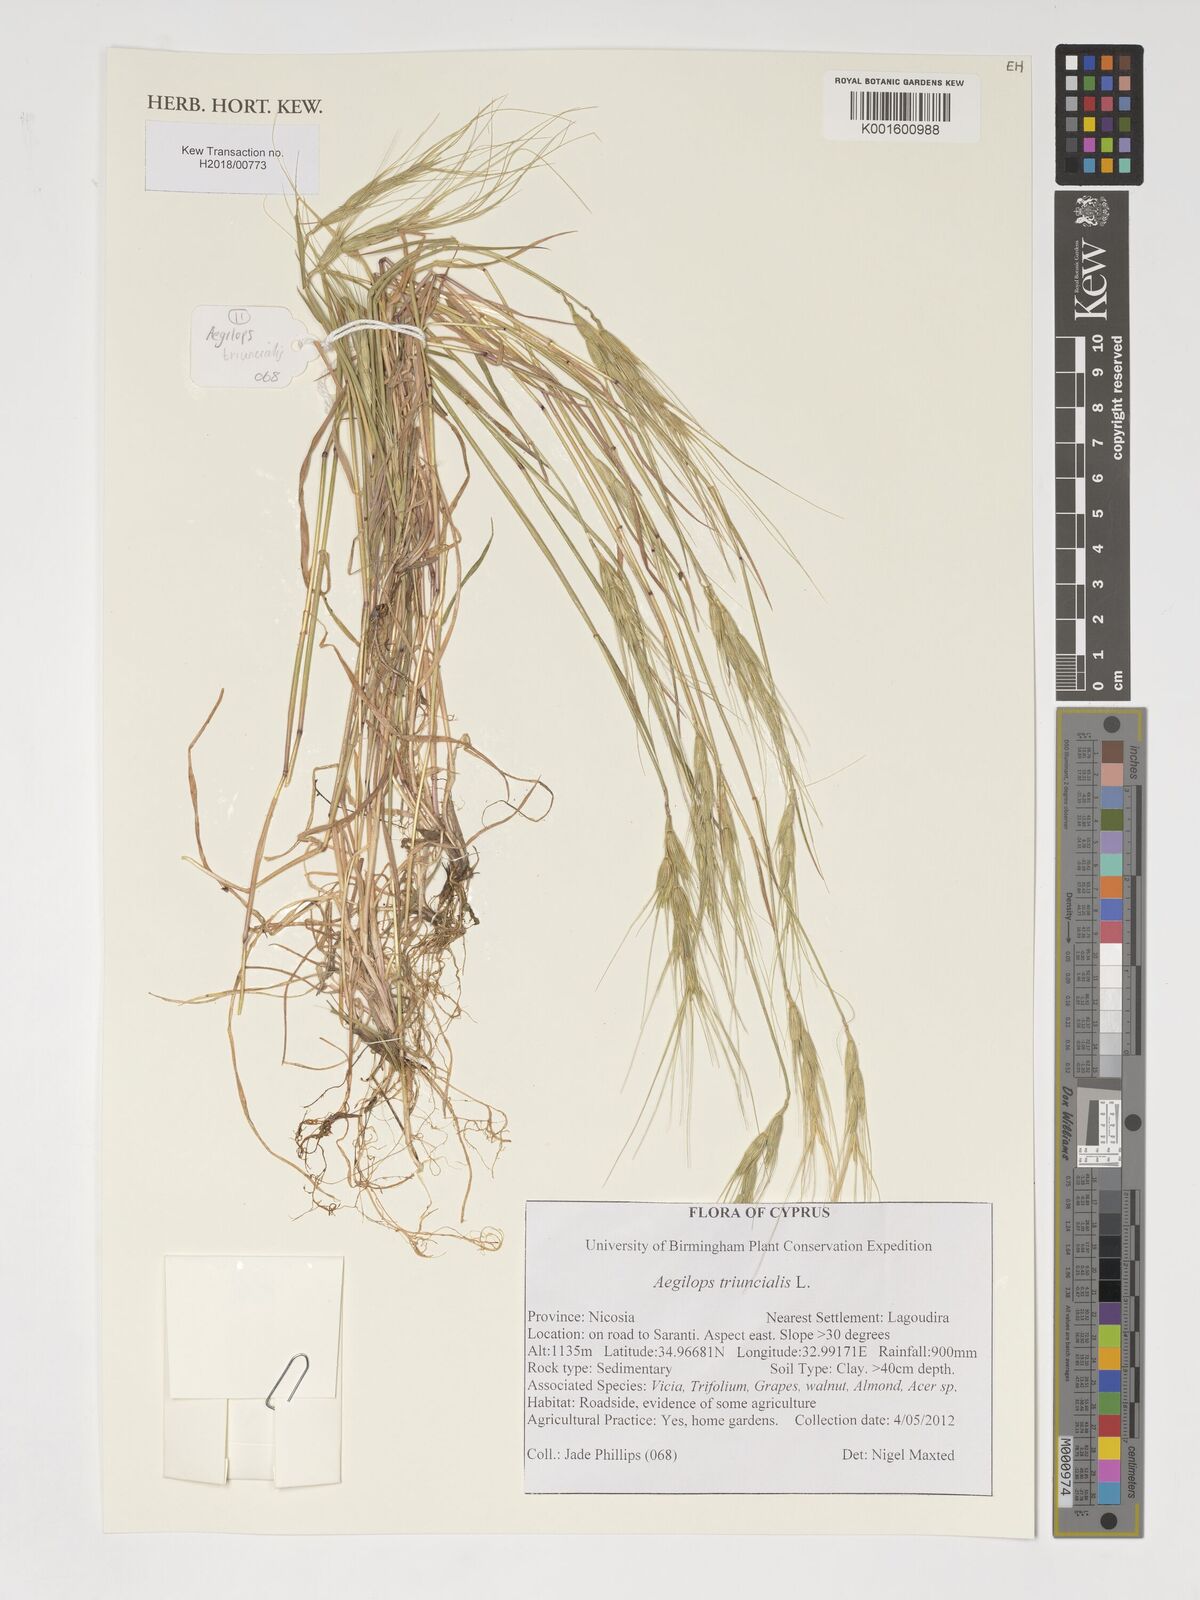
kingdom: Plantae
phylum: Tracheophyta
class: Liliopsida
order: Poales
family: Poaceae
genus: Aegilops
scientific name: Aegilops triuncialis
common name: Barb goat grass
